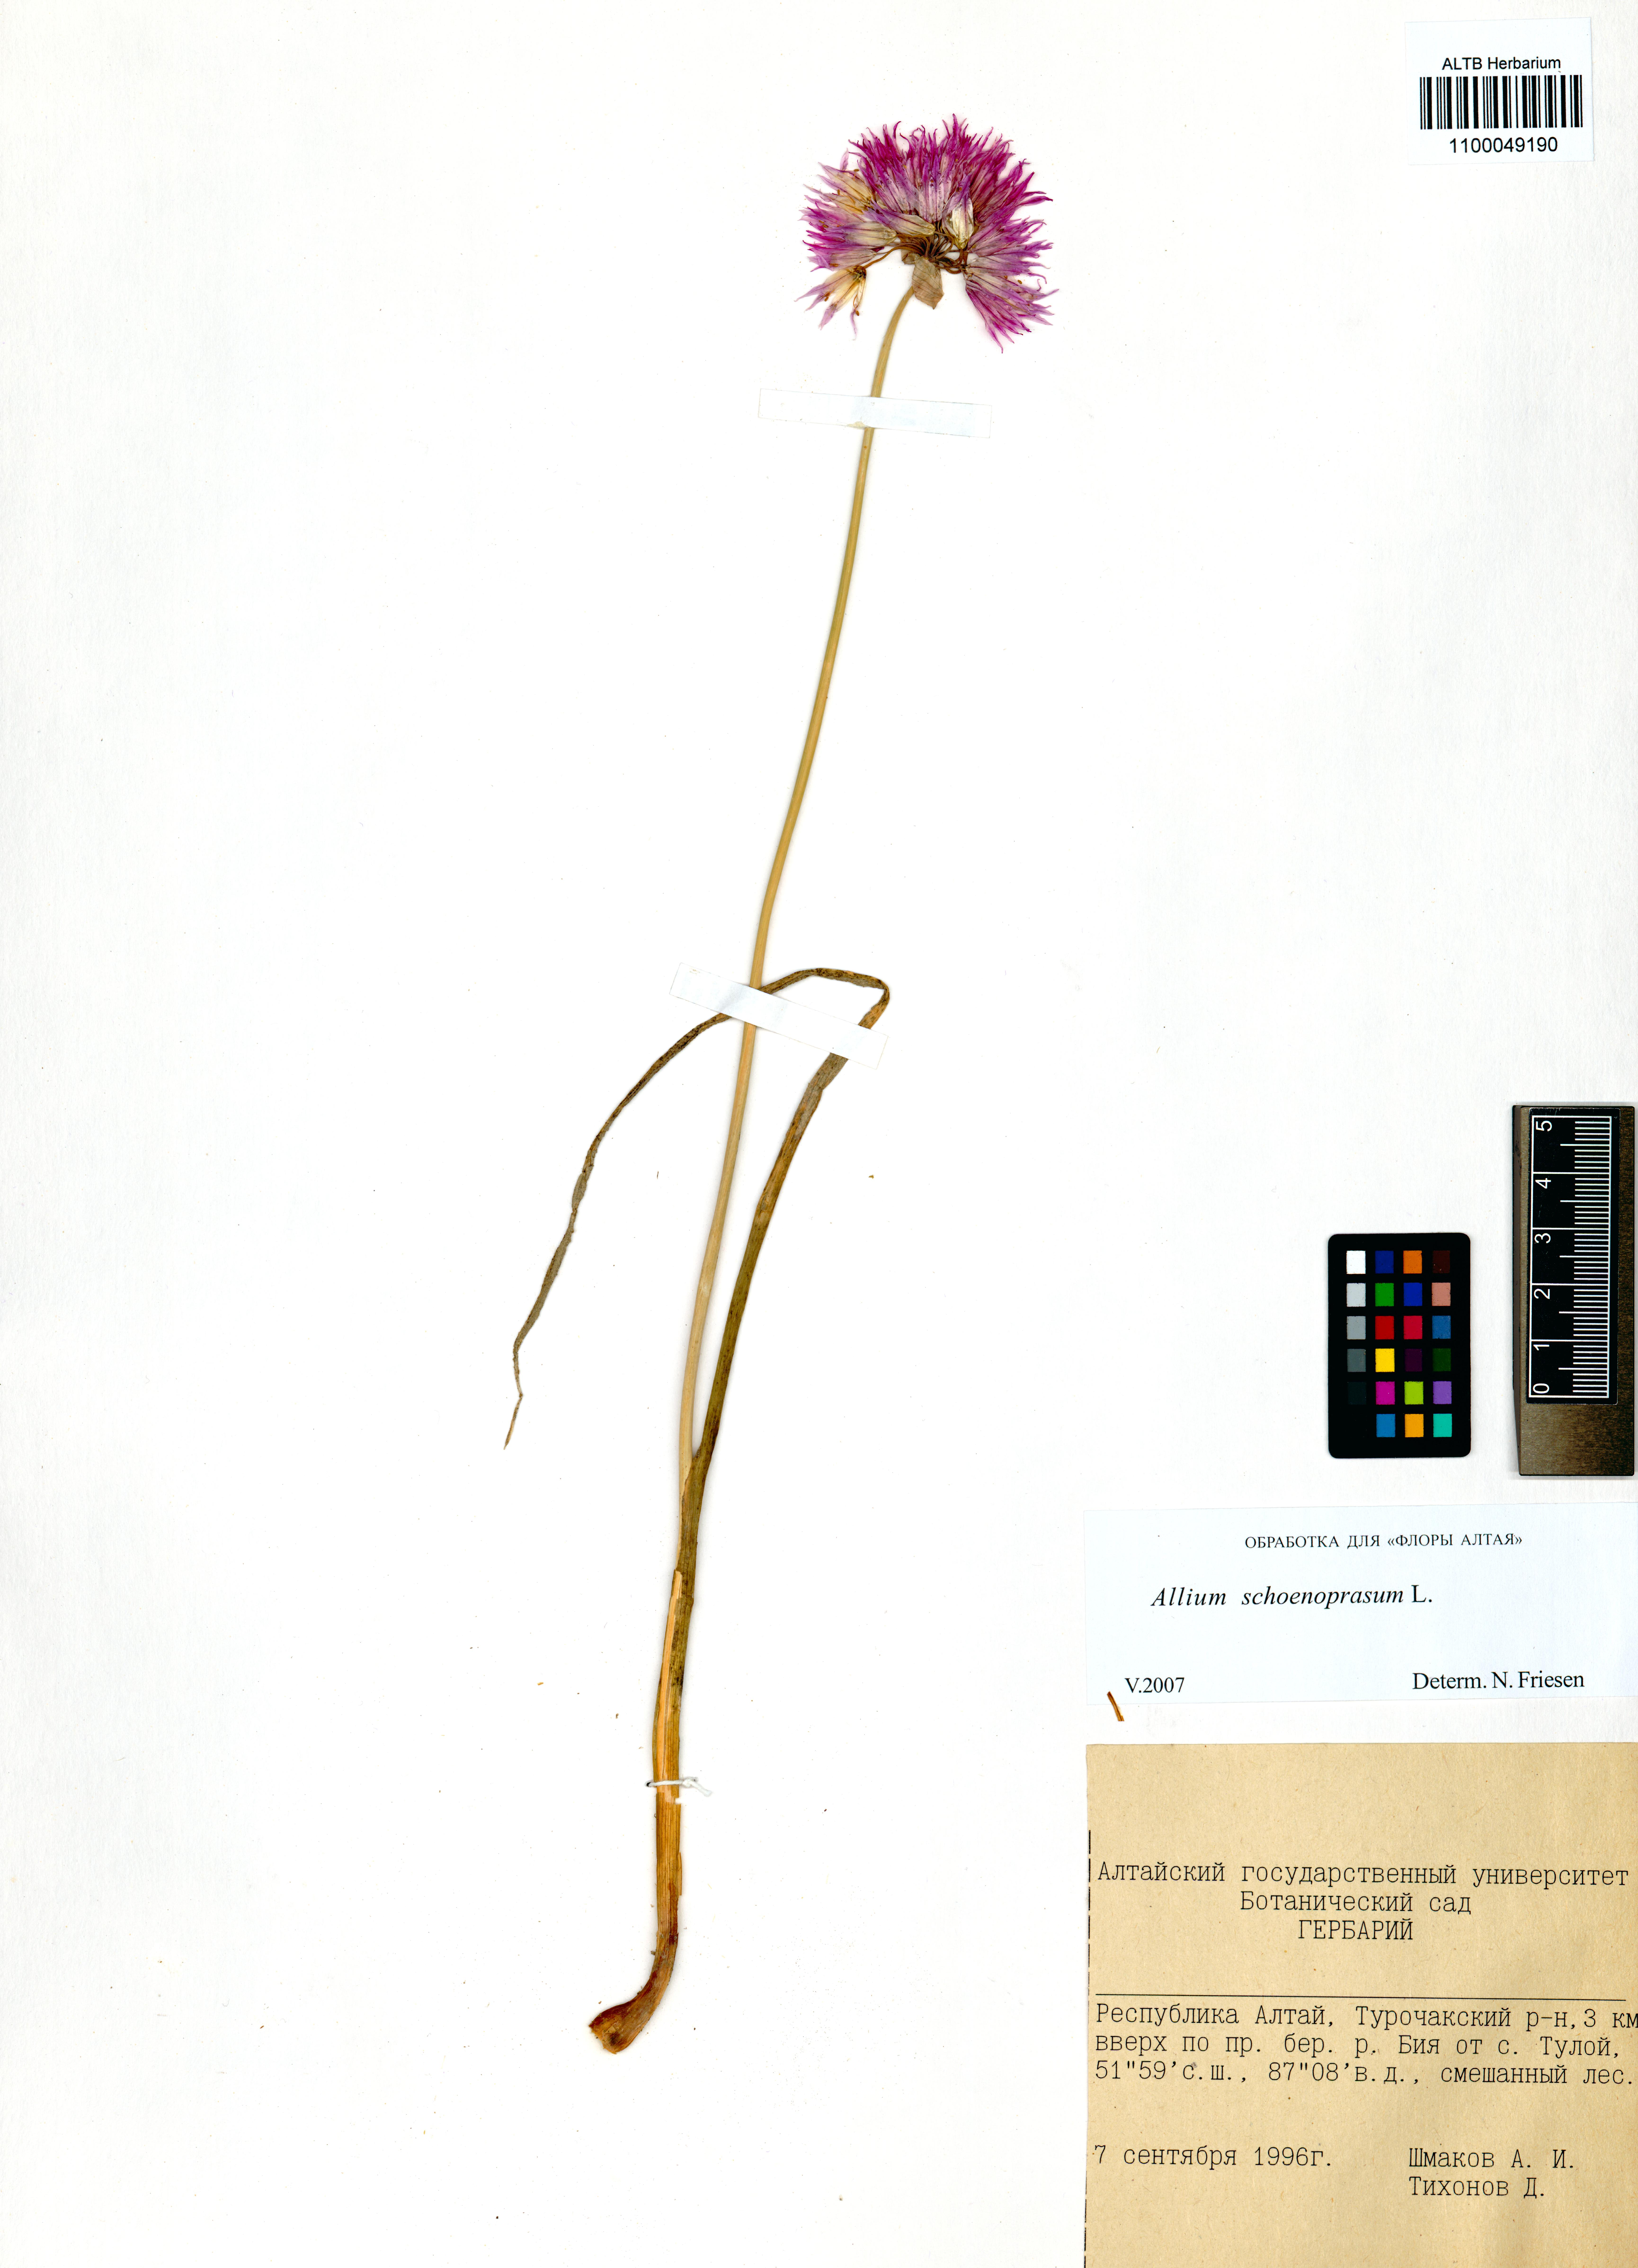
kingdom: Plantae
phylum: Tracheophyta
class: Liliopsida
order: Asparagales
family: Amaryllidaceae
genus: Allium
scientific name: Allium schoenoprasum
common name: Chives
